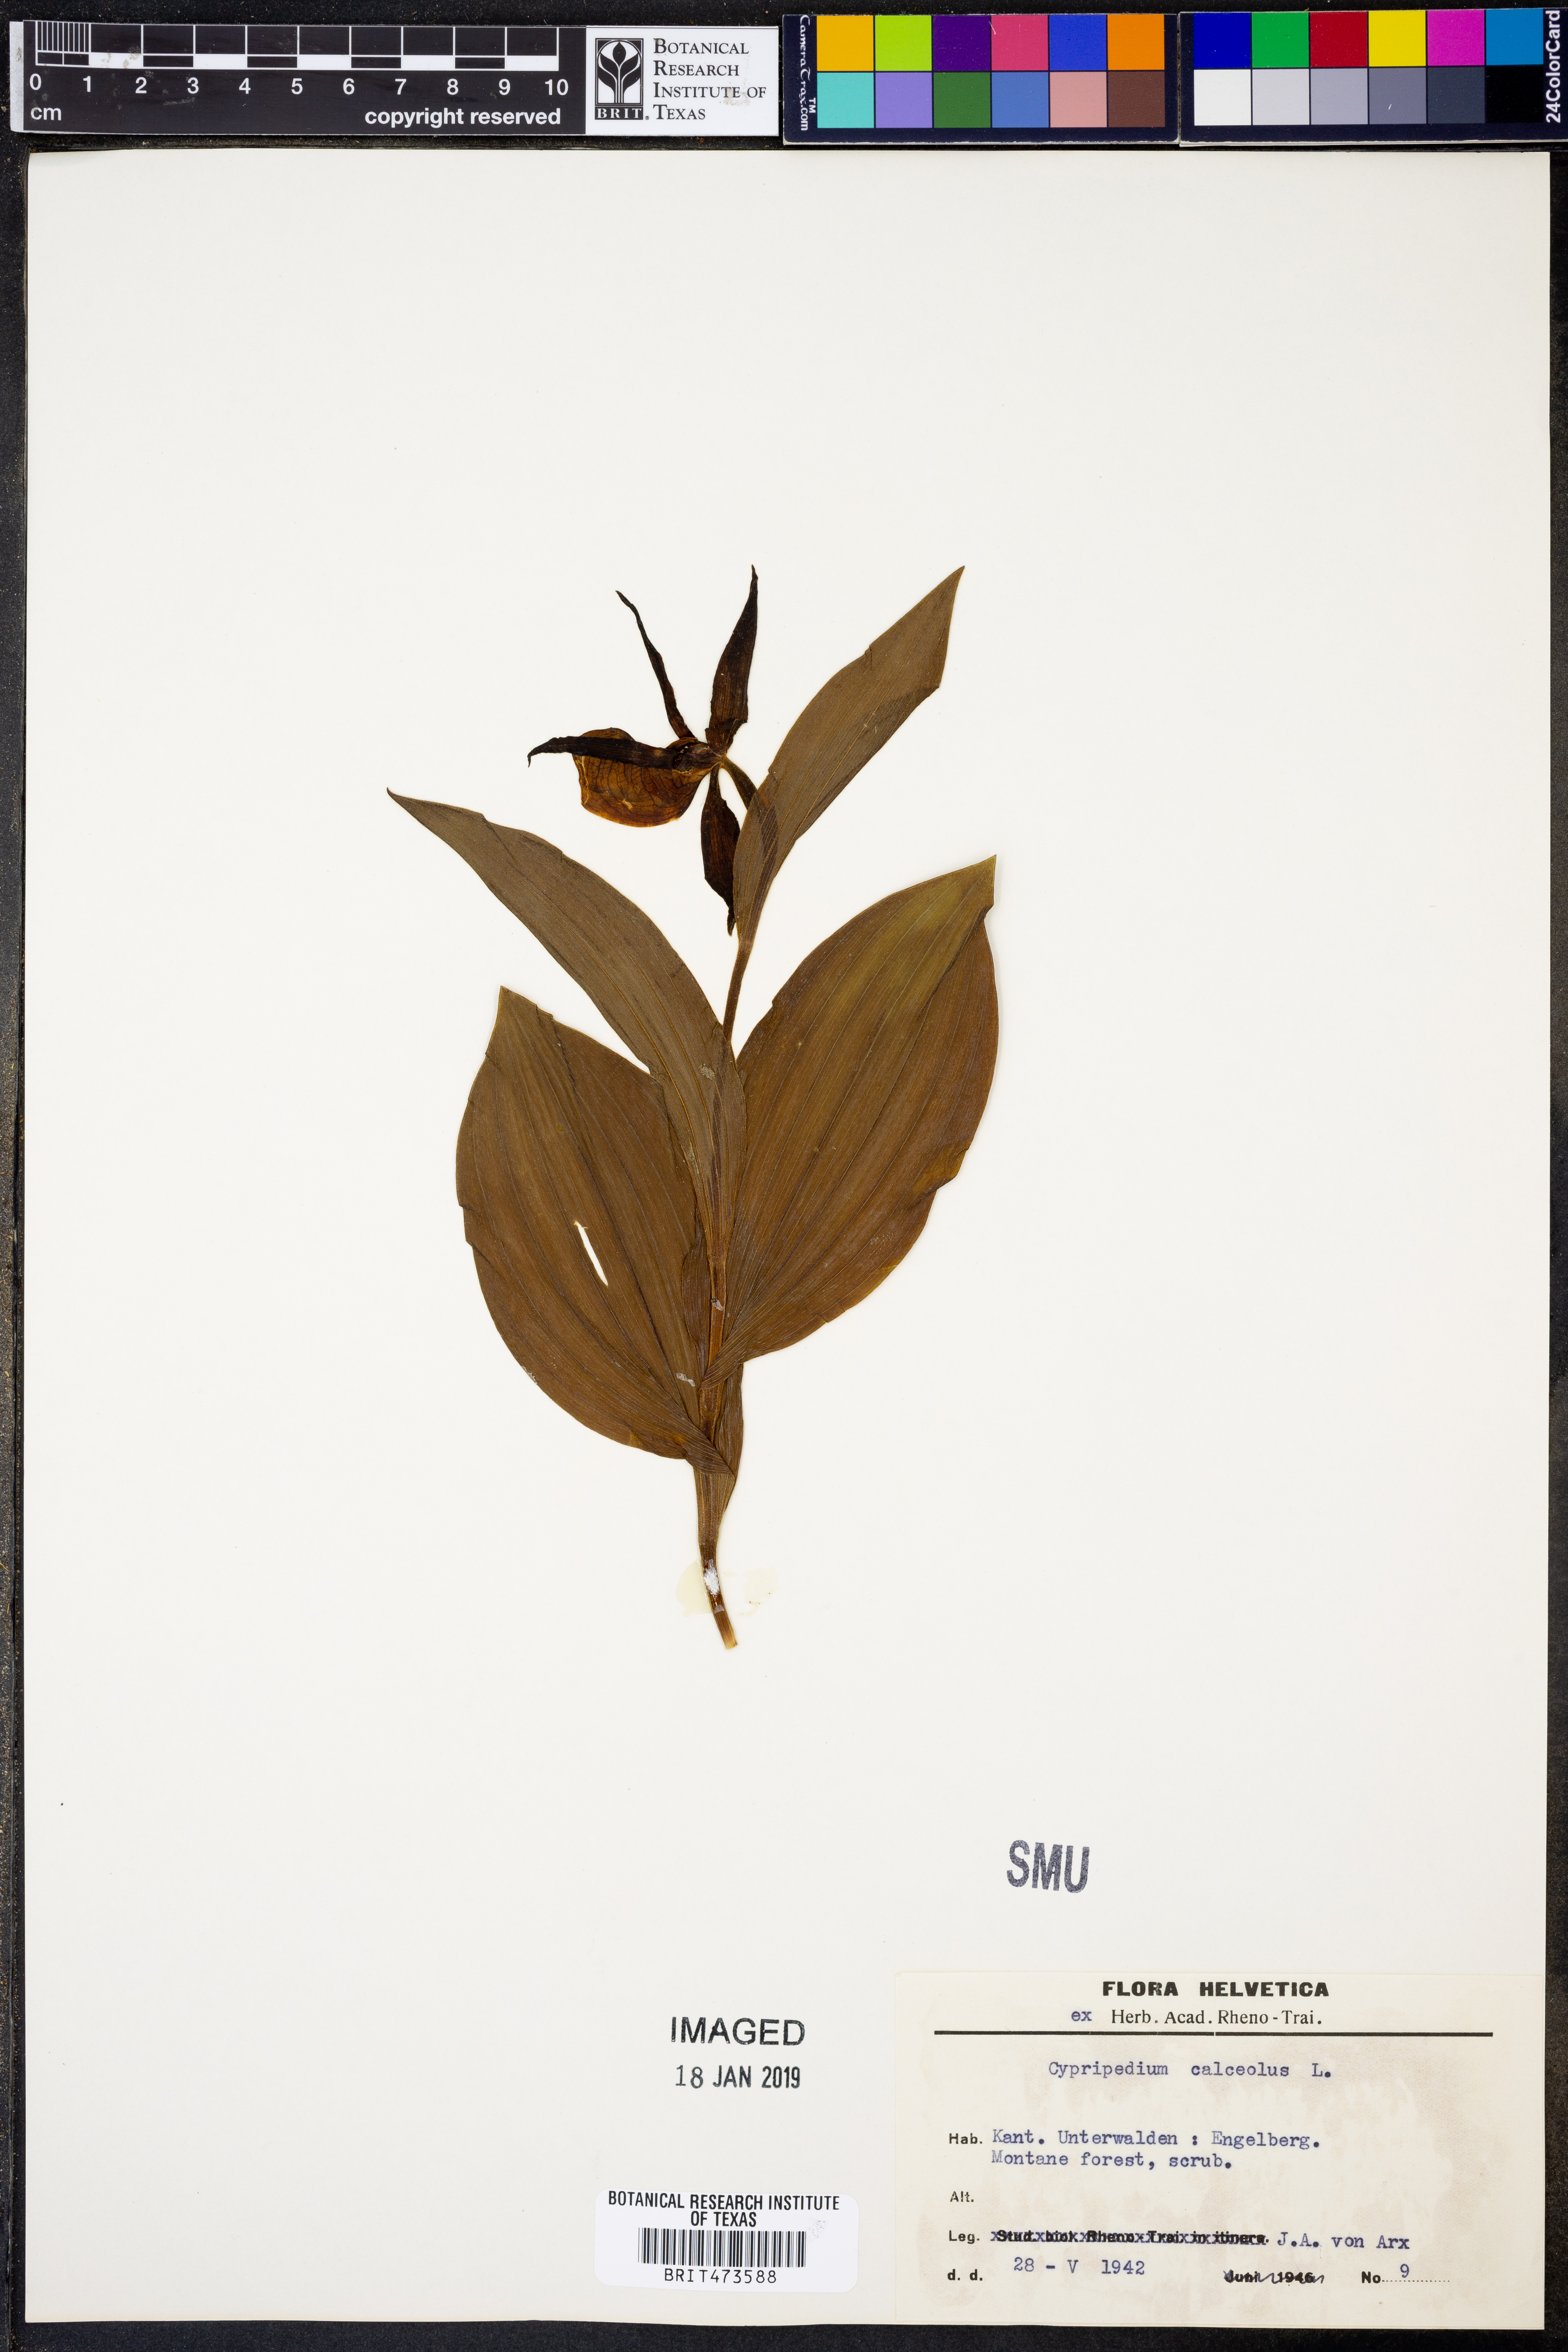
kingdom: Plantae
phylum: Tracheophyta
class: Liliopsida
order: Asparagales
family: Orchidaceae
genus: Cypripedium
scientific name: Cypripedium calceolus
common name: Lady's-slipper
